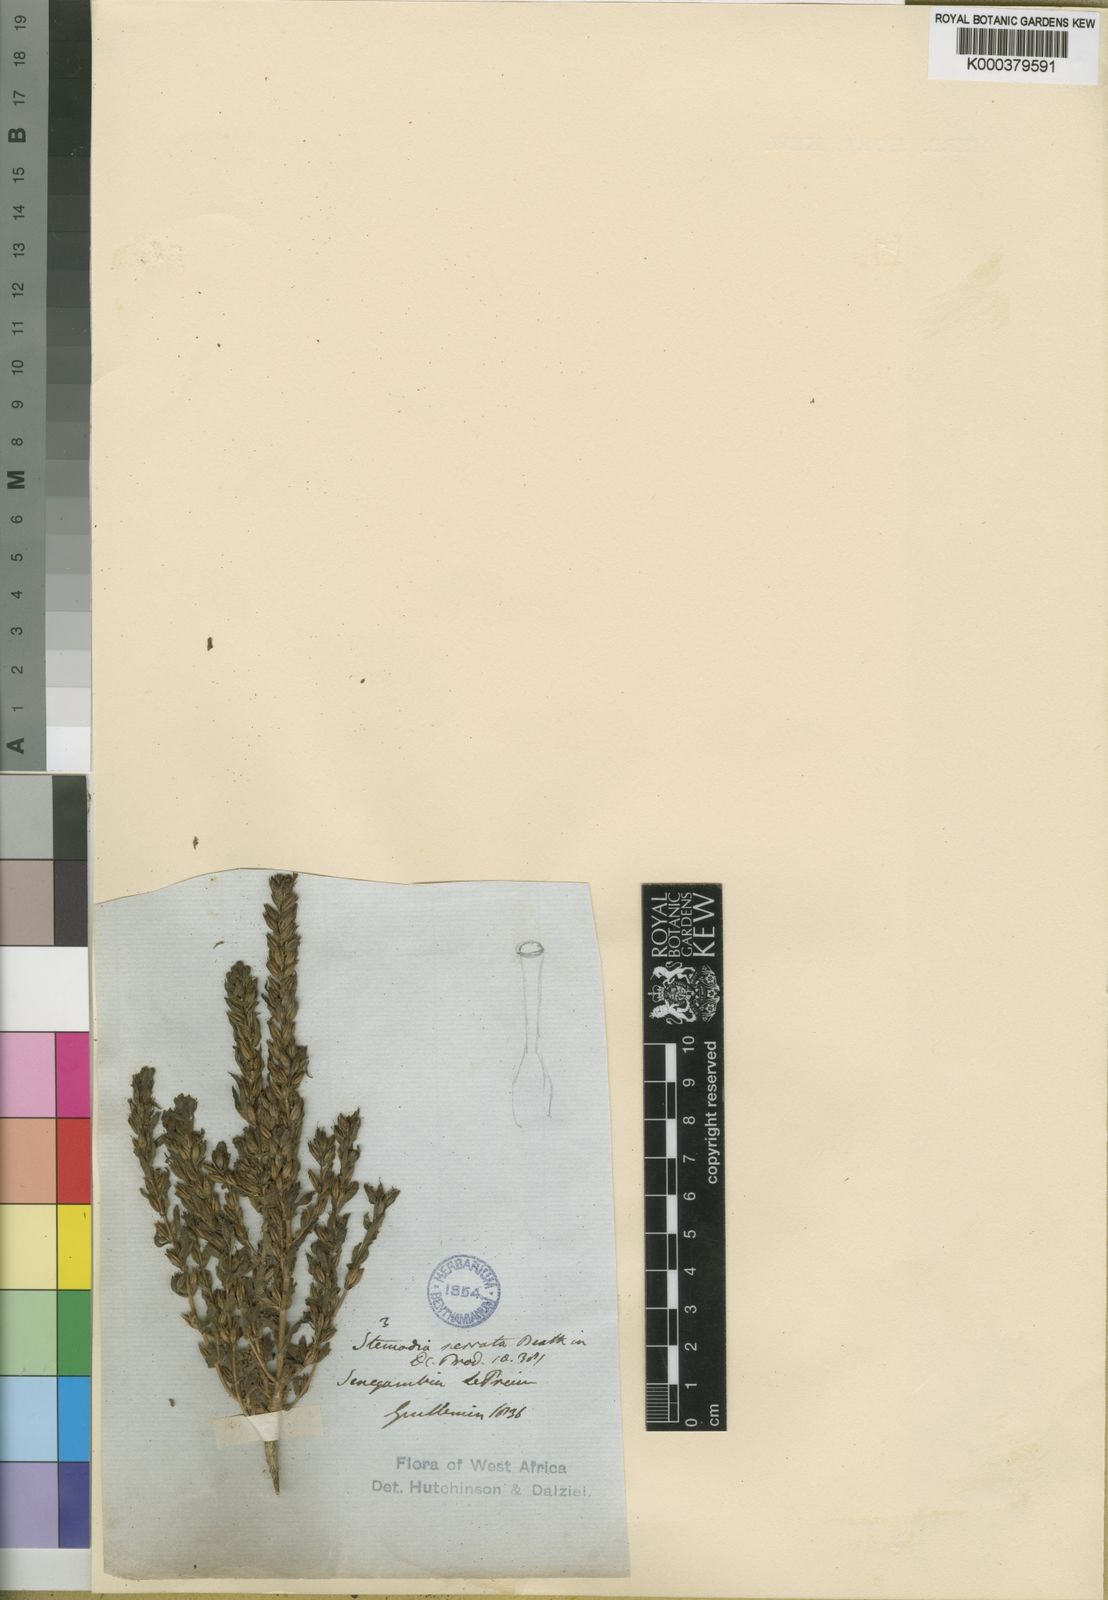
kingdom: Plantae
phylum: Tracheophyta
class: Magnoliopsida
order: Lamiales
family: Plantaginaceae
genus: Stemodia
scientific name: Stemodia serrata
